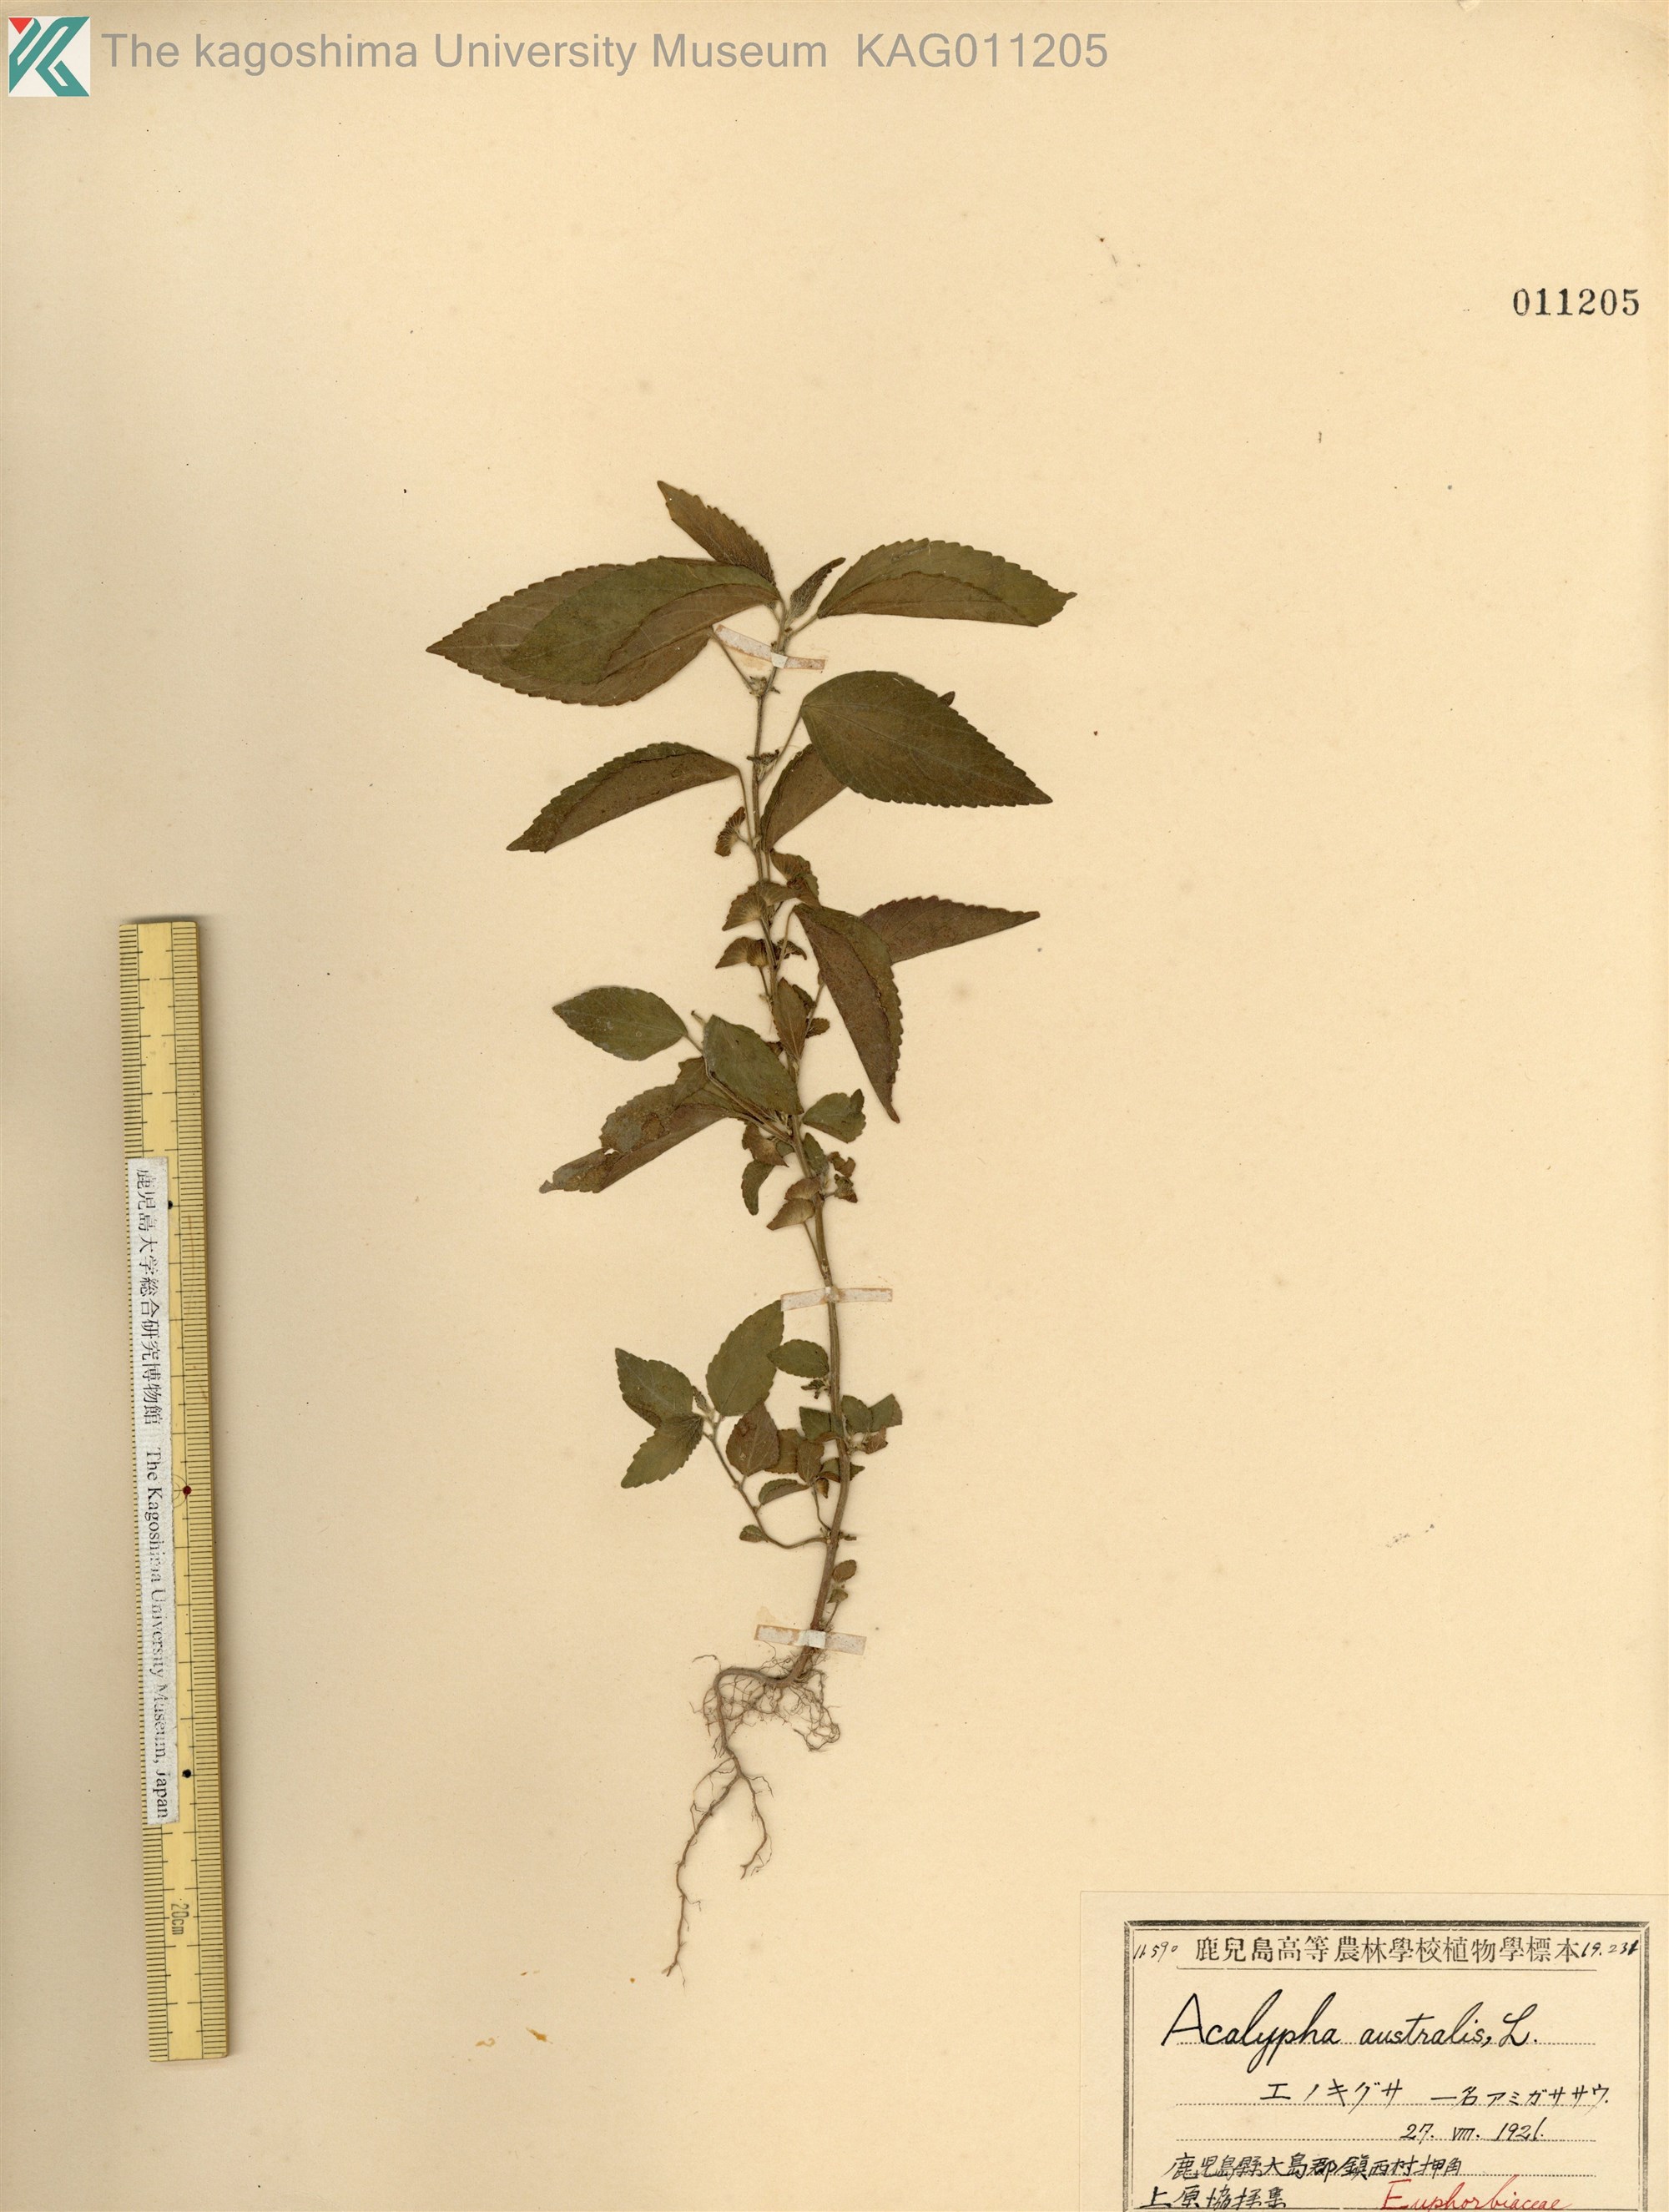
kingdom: Plantae
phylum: Tracheophyta
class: Magnoliopsida
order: Malpighiales
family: Euphorbiaceae
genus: Acalypha
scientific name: Acalypha australis
